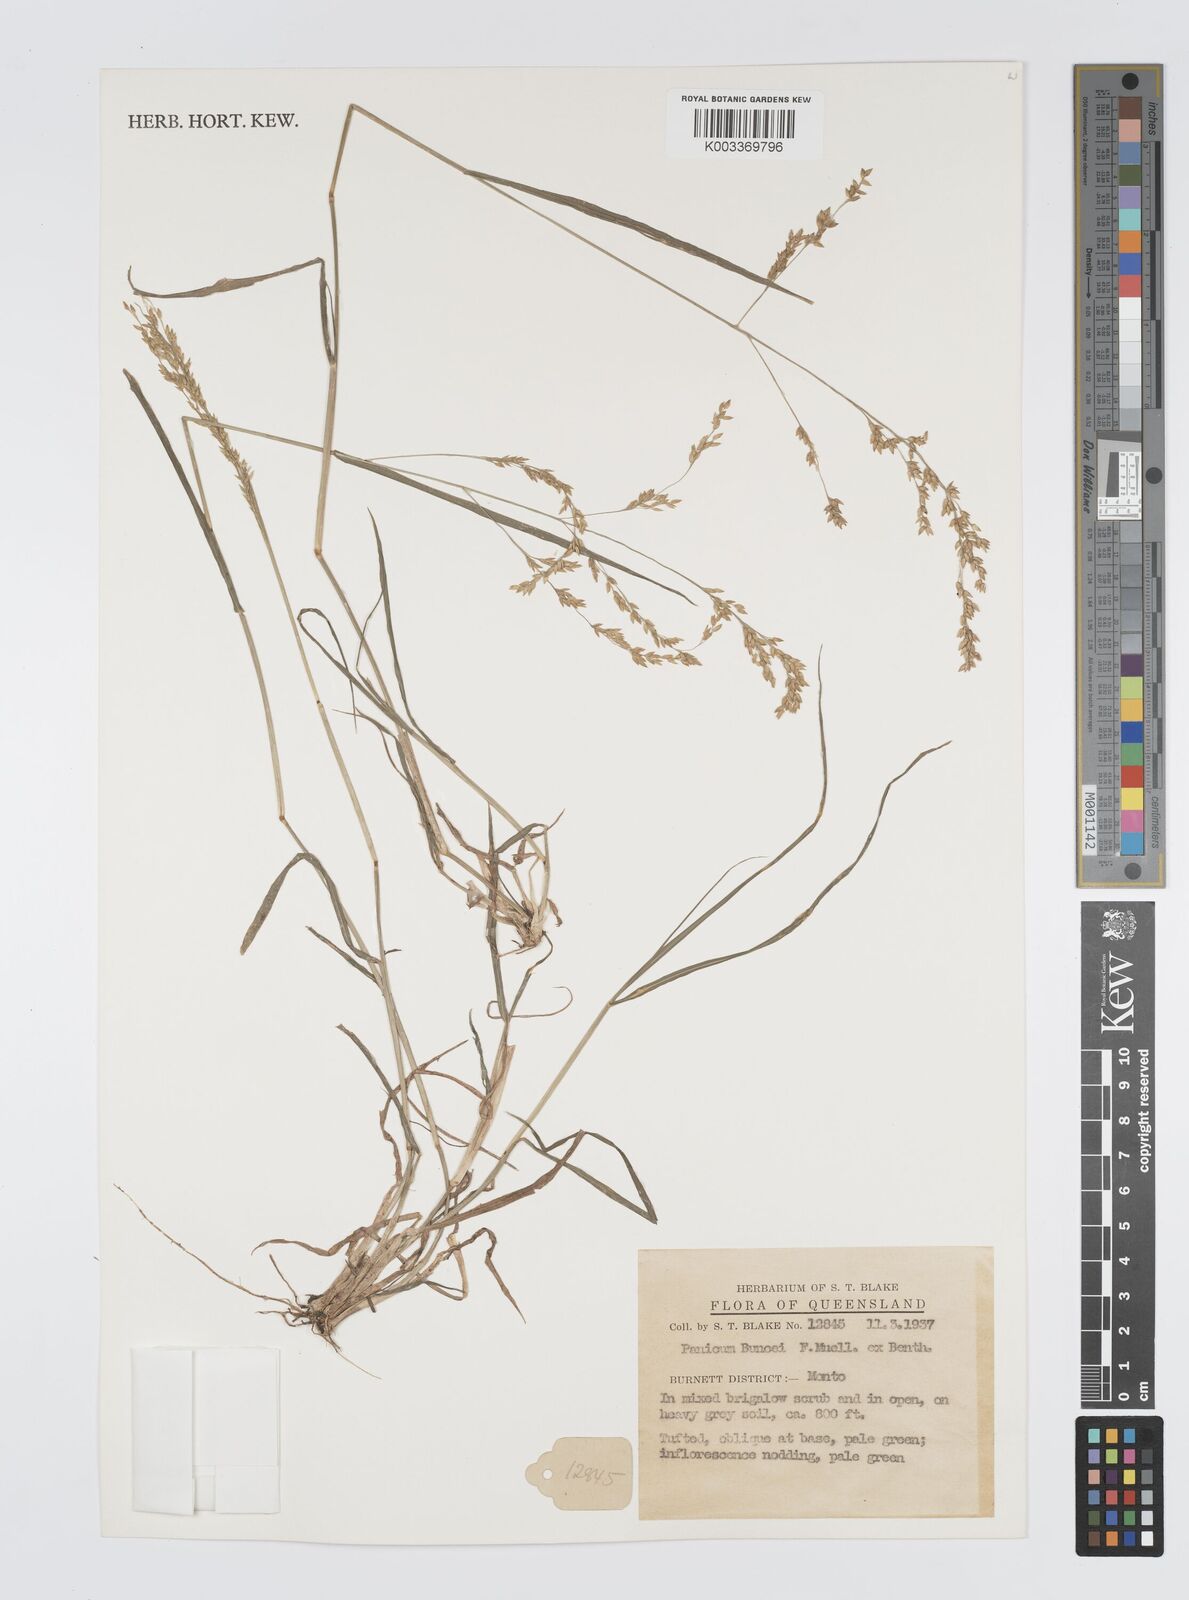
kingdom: Plantae
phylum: Tracheophyta
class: Liliopsida
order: Poales
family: Poaceae
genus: Panicum
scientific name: Panicum buncei
